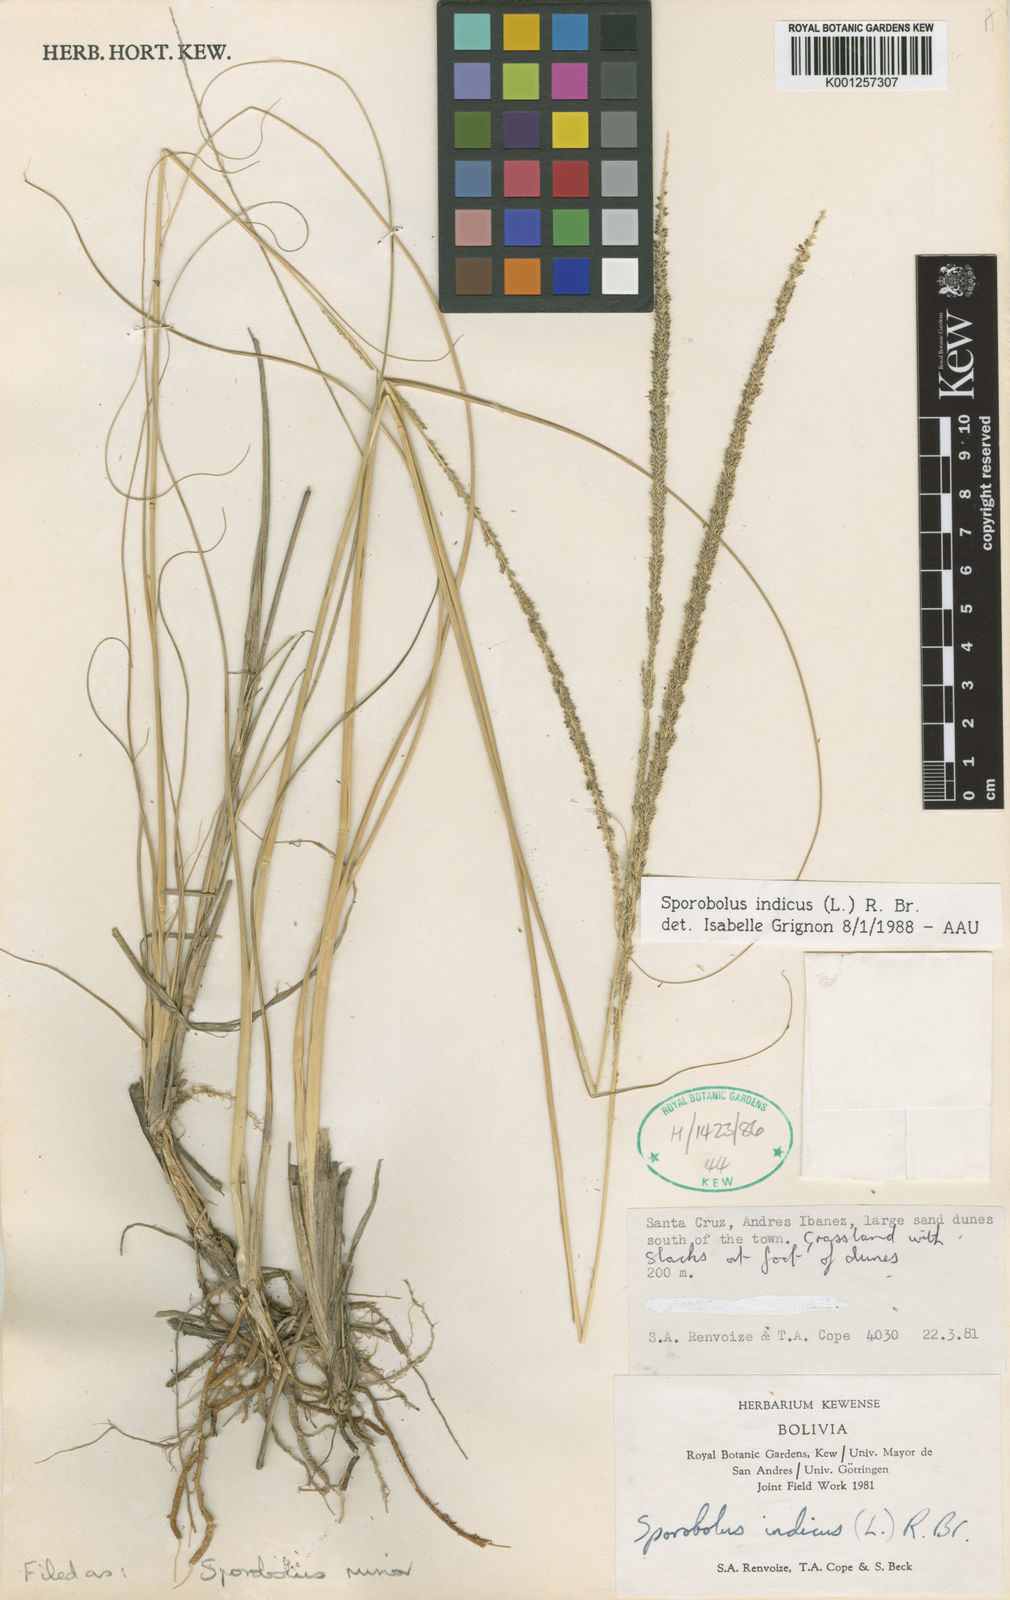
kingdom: Plantae
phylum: Tracheophyta
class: Liliopsida
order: Poales
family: Poaceae
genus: Sporobolus
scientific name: Sporobolus
